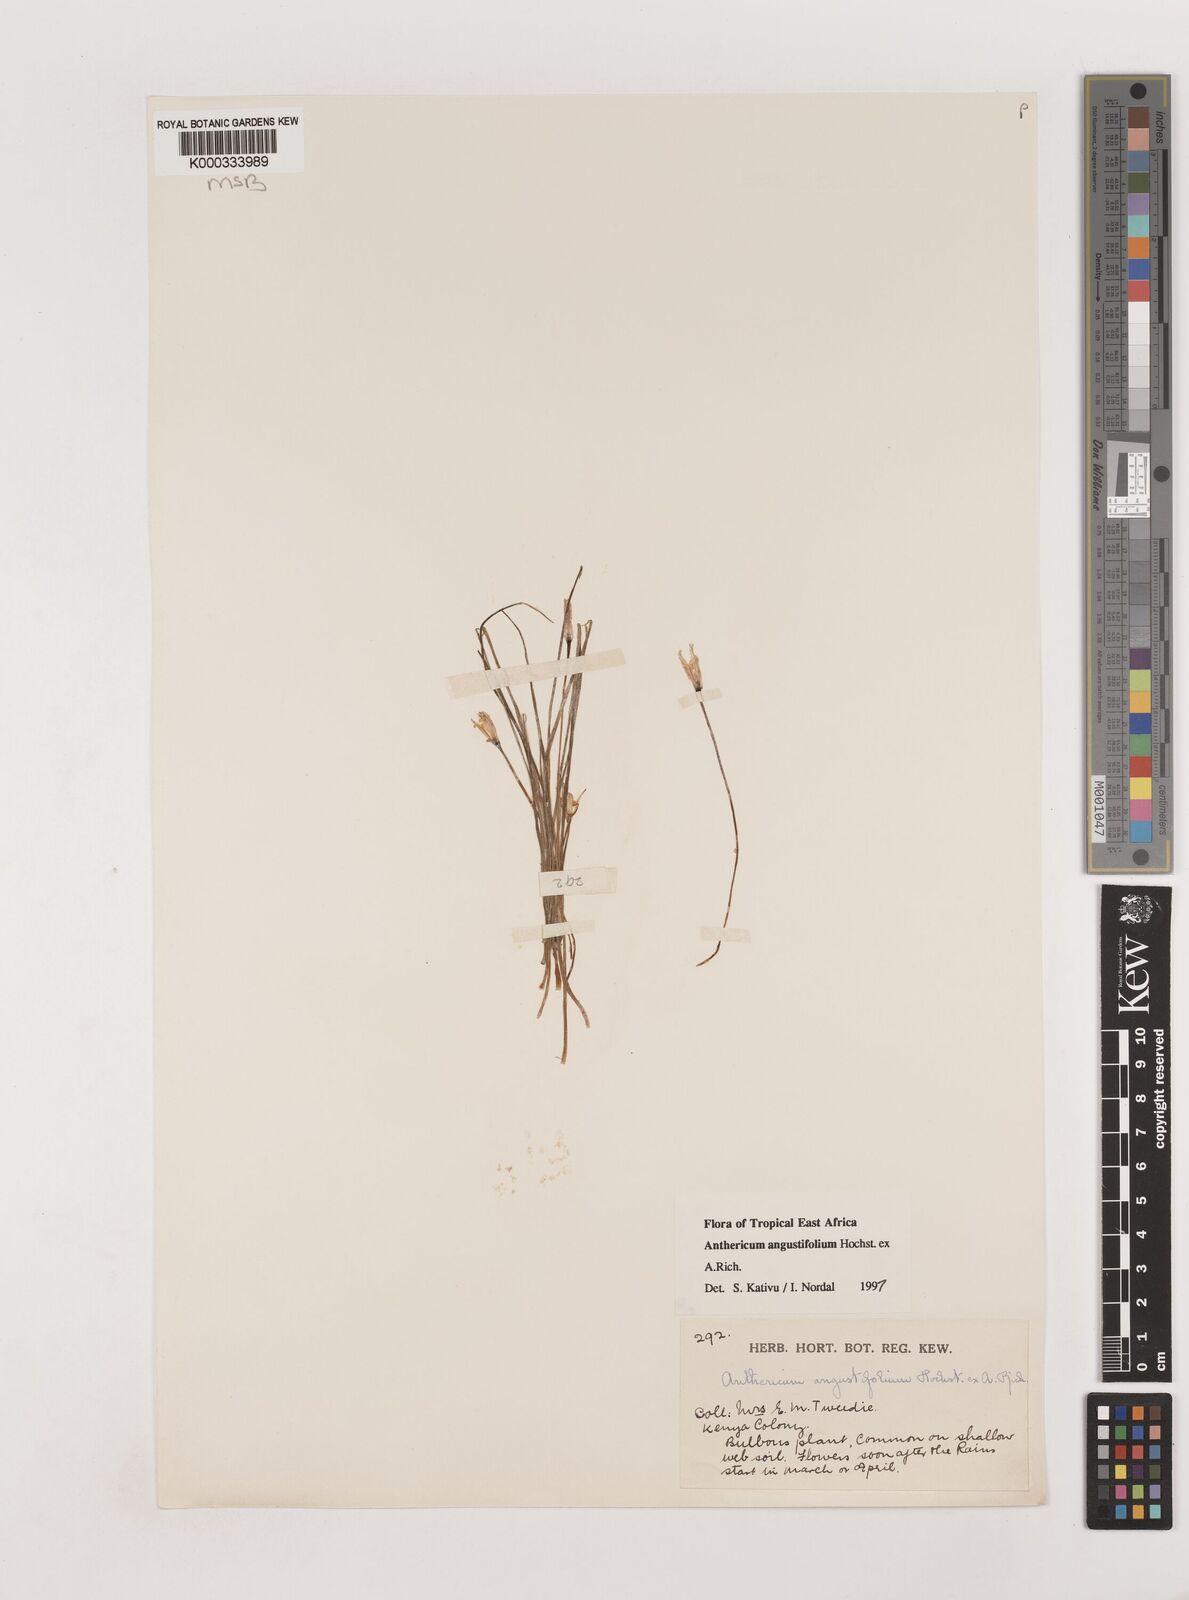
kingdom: Plantae
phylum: Tracheophyta
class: Liliopsida
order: Asparagales
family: Asparagaceae
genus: Anthericum
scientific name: Anthericum angustifolium
